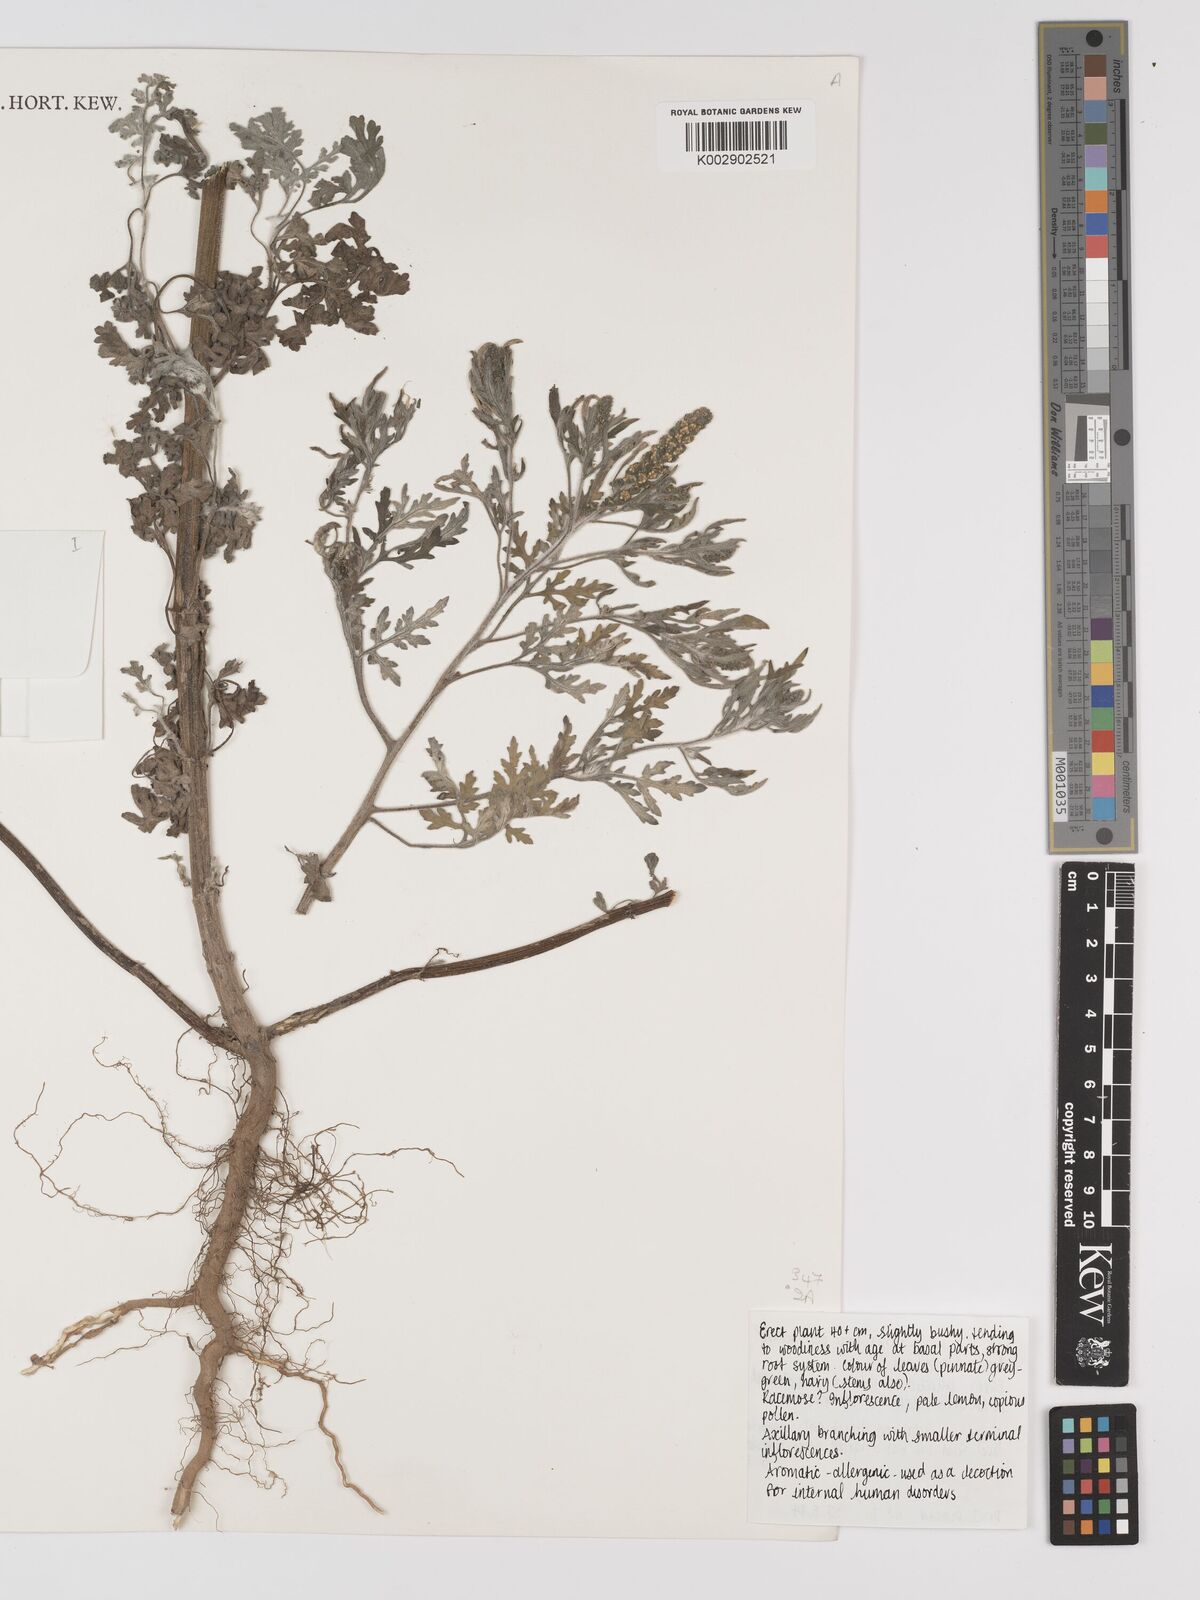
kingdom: Plantae
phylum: Tracheophyta
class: Magnoliopsida
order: Asterales
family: Asteraceae
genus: Ambrosia
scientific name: Ambrosia maritima
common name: Sea ambrosia
